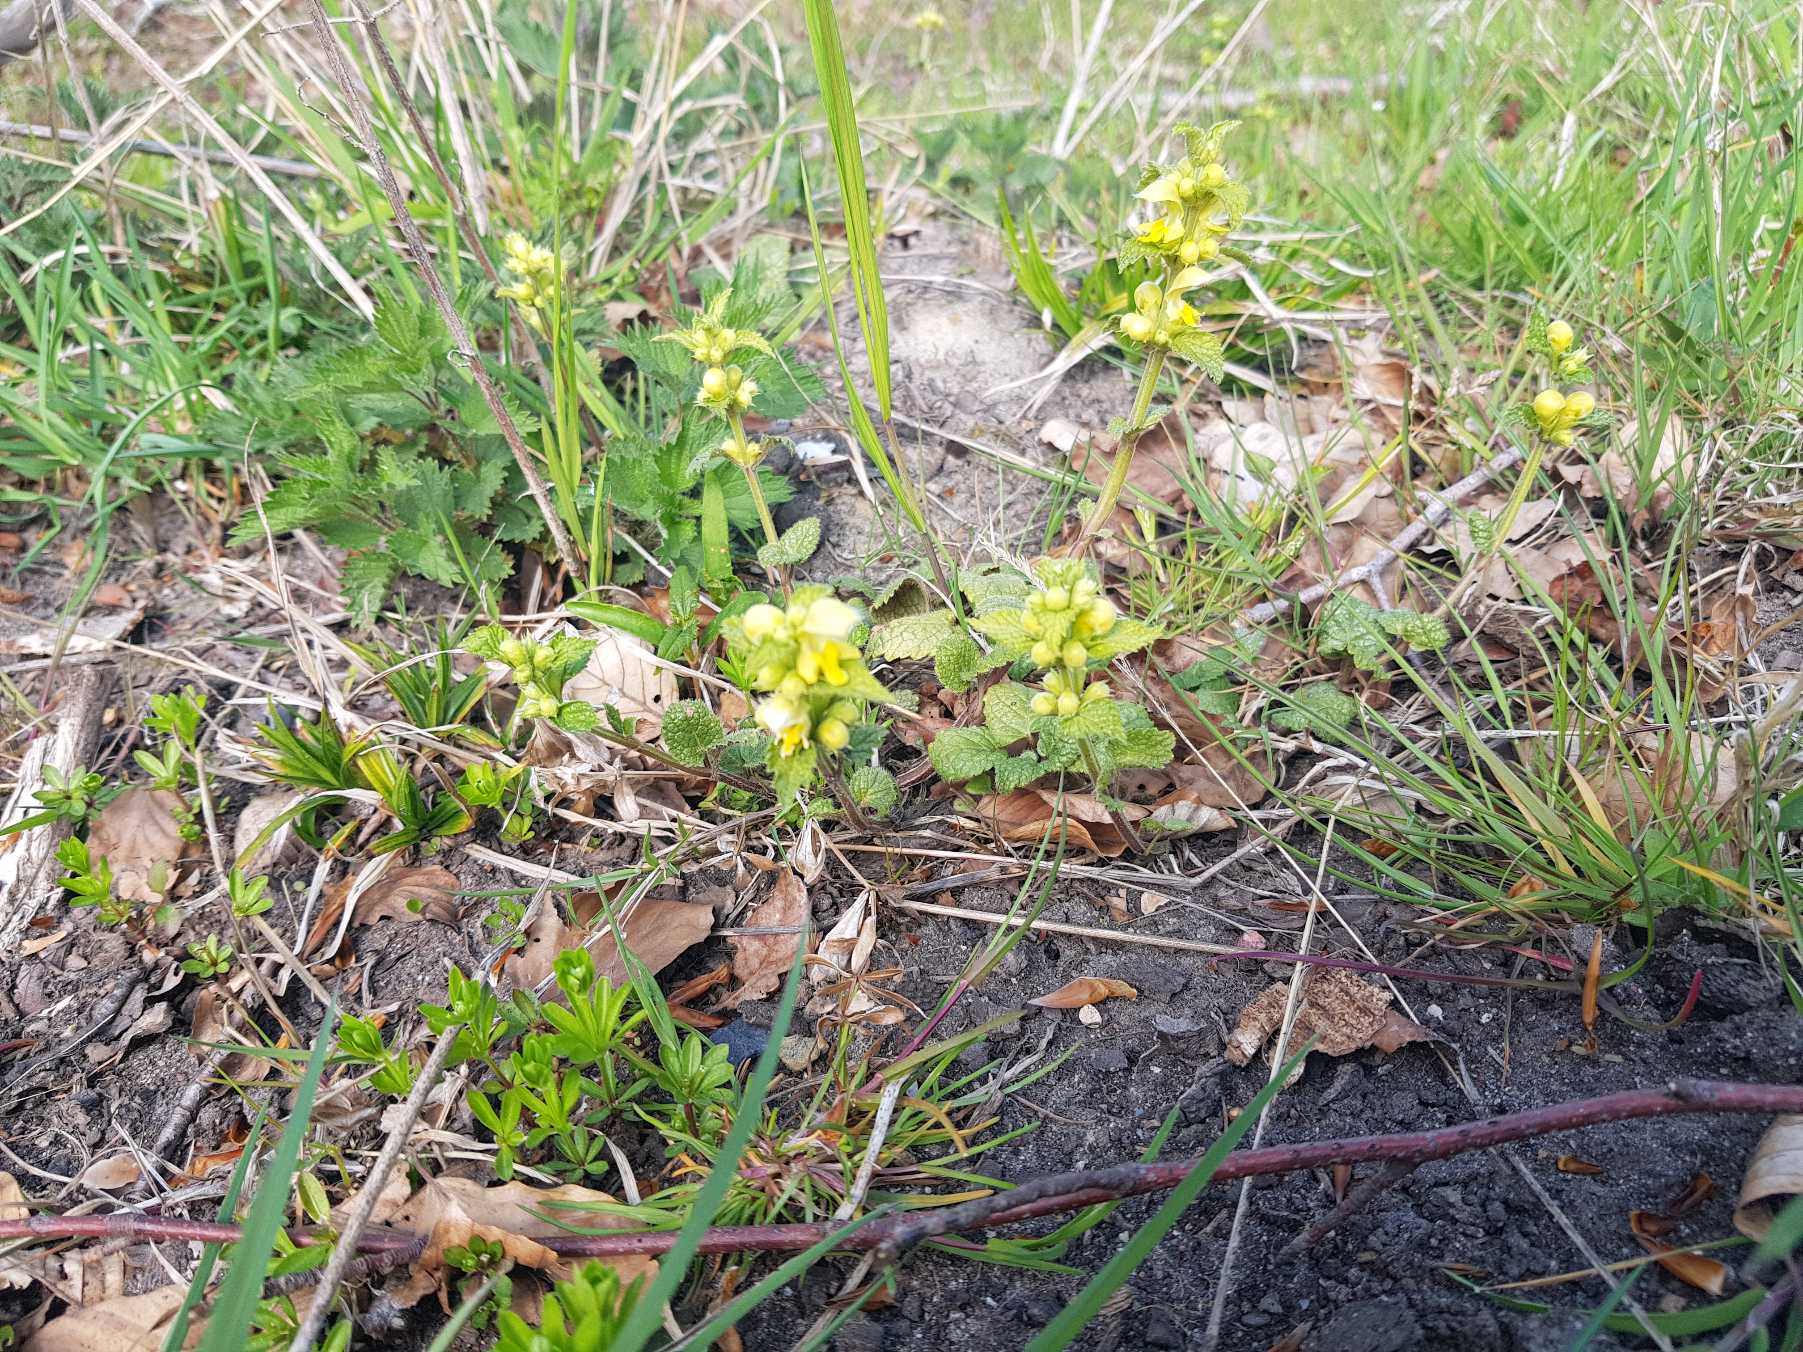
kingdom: Plantae
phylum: Tracheophyta
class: Magnoliopsida
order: Lamiales
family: Lamiaceae
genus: Lamium
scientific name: Lamium galeobdolon
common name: Almindelig guldnælde
